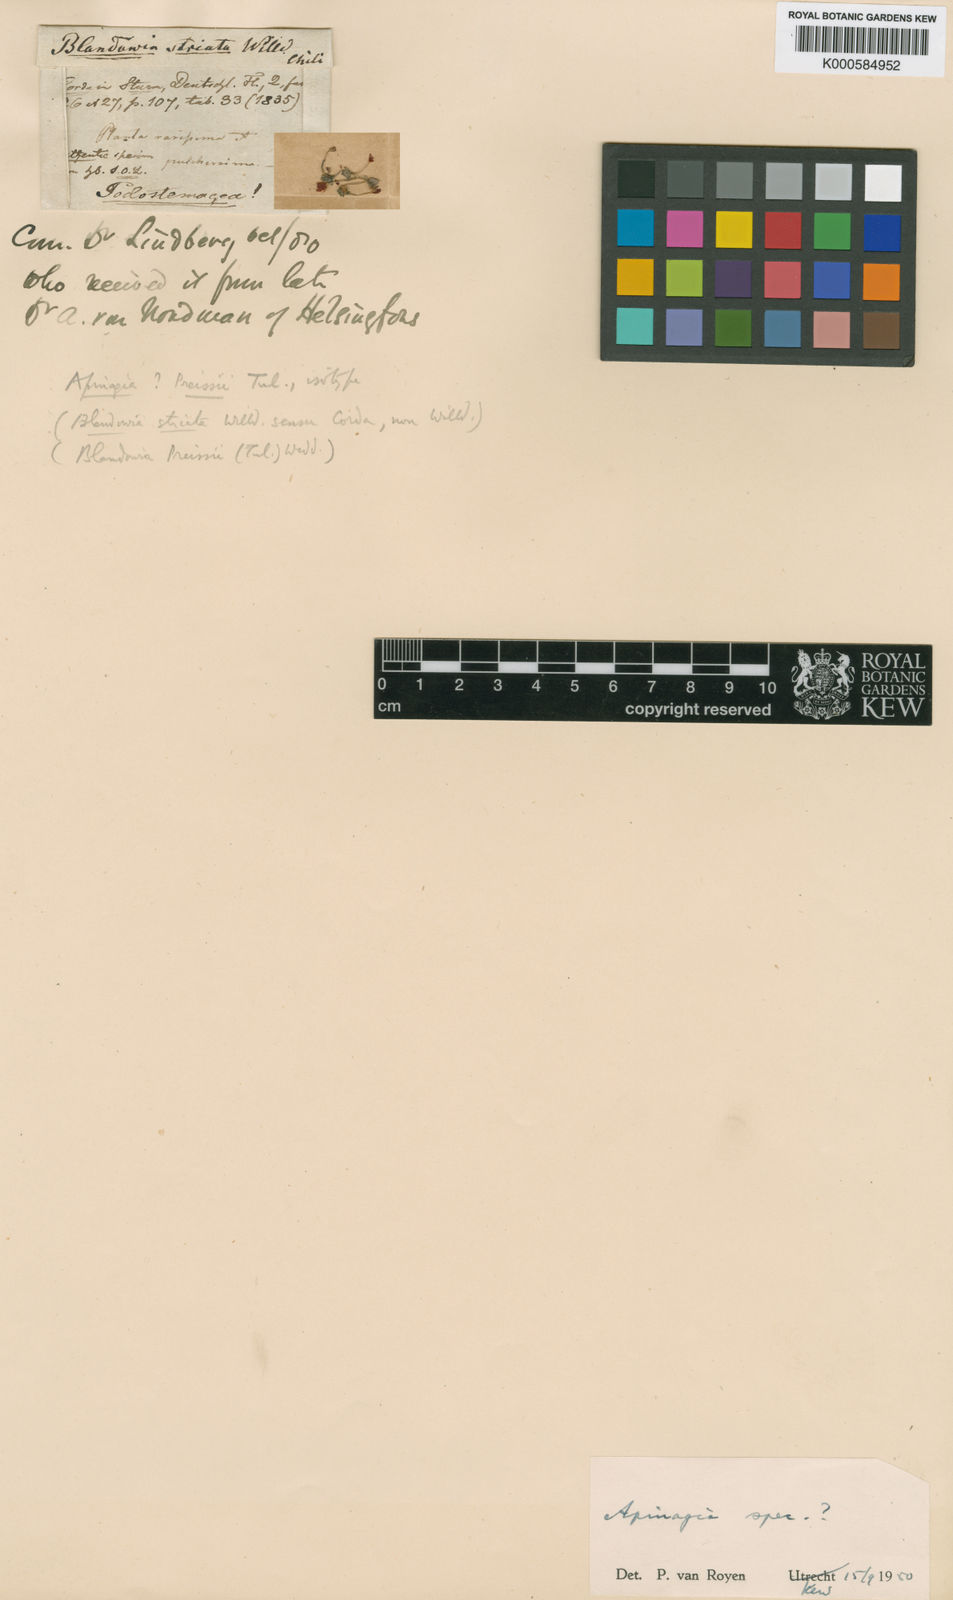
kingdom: Plantae
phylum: Tracheophyta
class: Magnoliopsida
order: Malpighiales
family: Podostemaceae
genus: Lophogyne
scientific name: Lophogyne royenella
